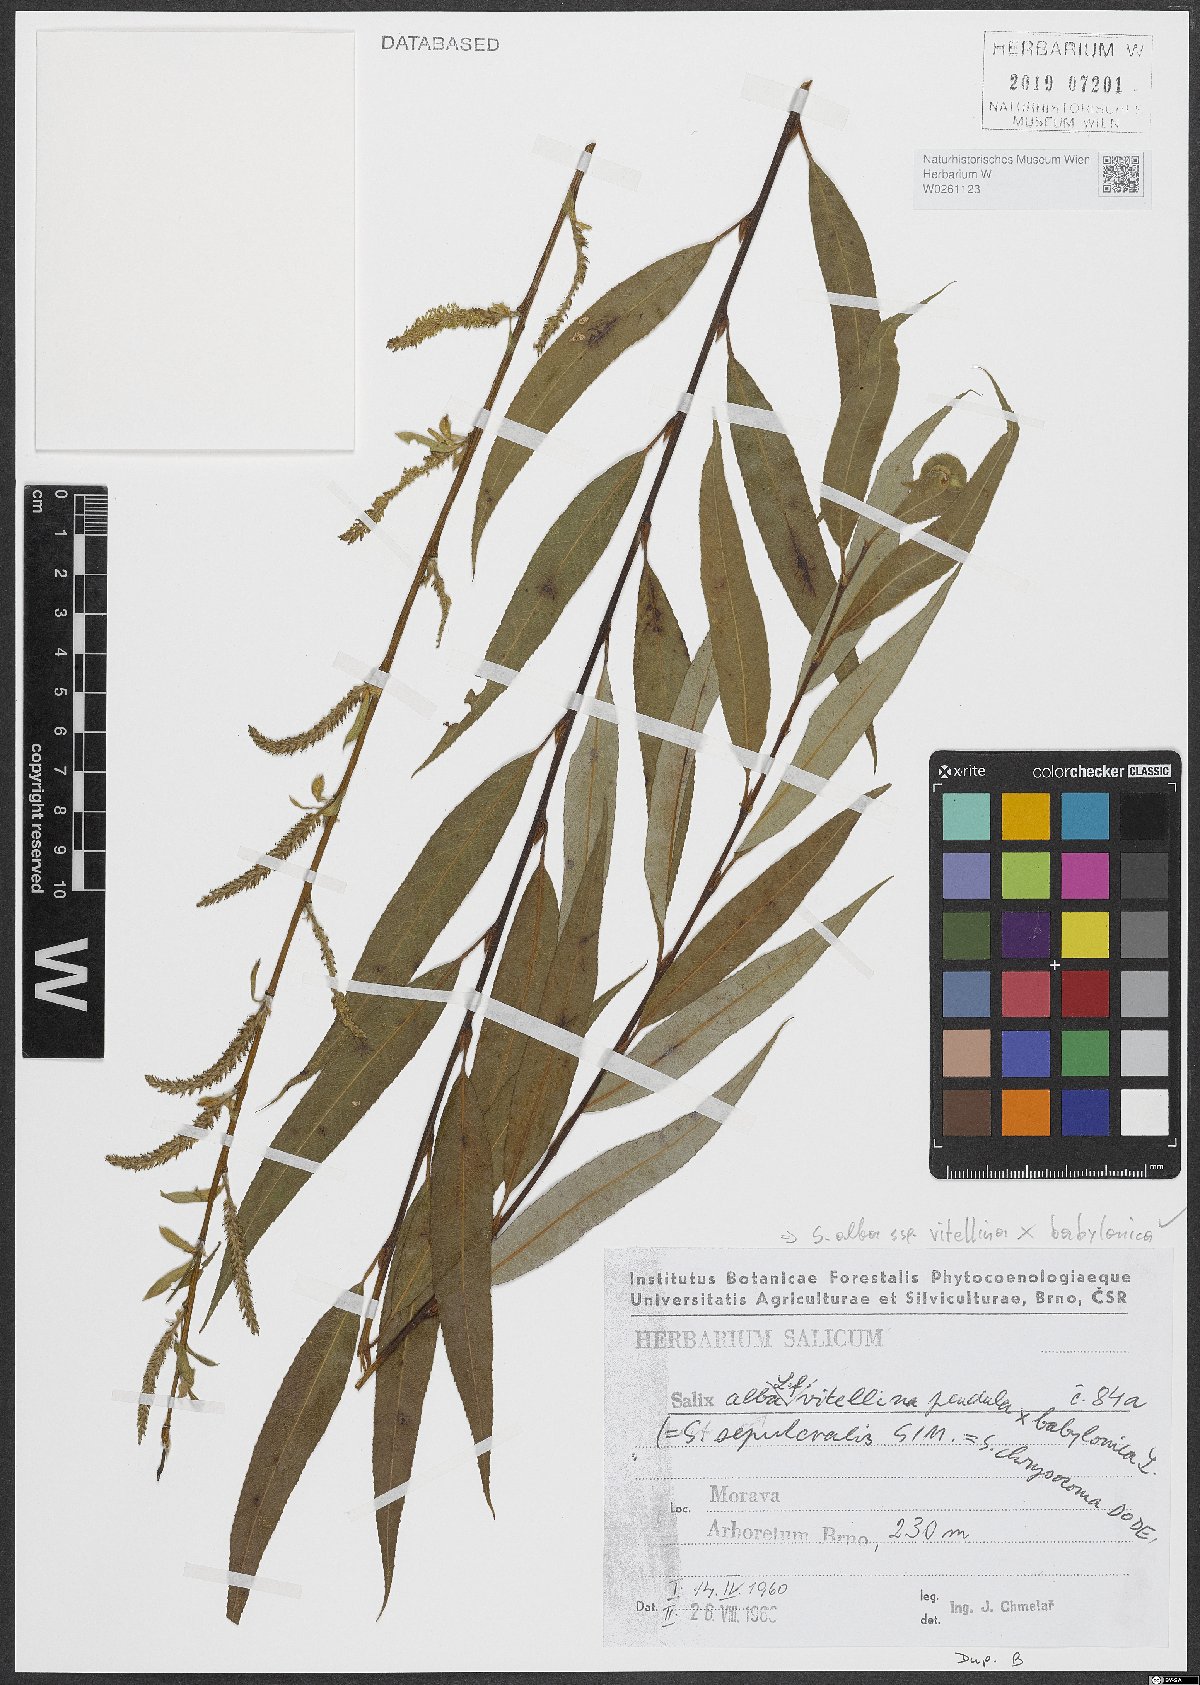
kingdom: Plantae
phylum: Tracheophyta
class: Magnoliopsida
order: Malpighiales
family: Salicaceae
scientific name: Salicaceae
